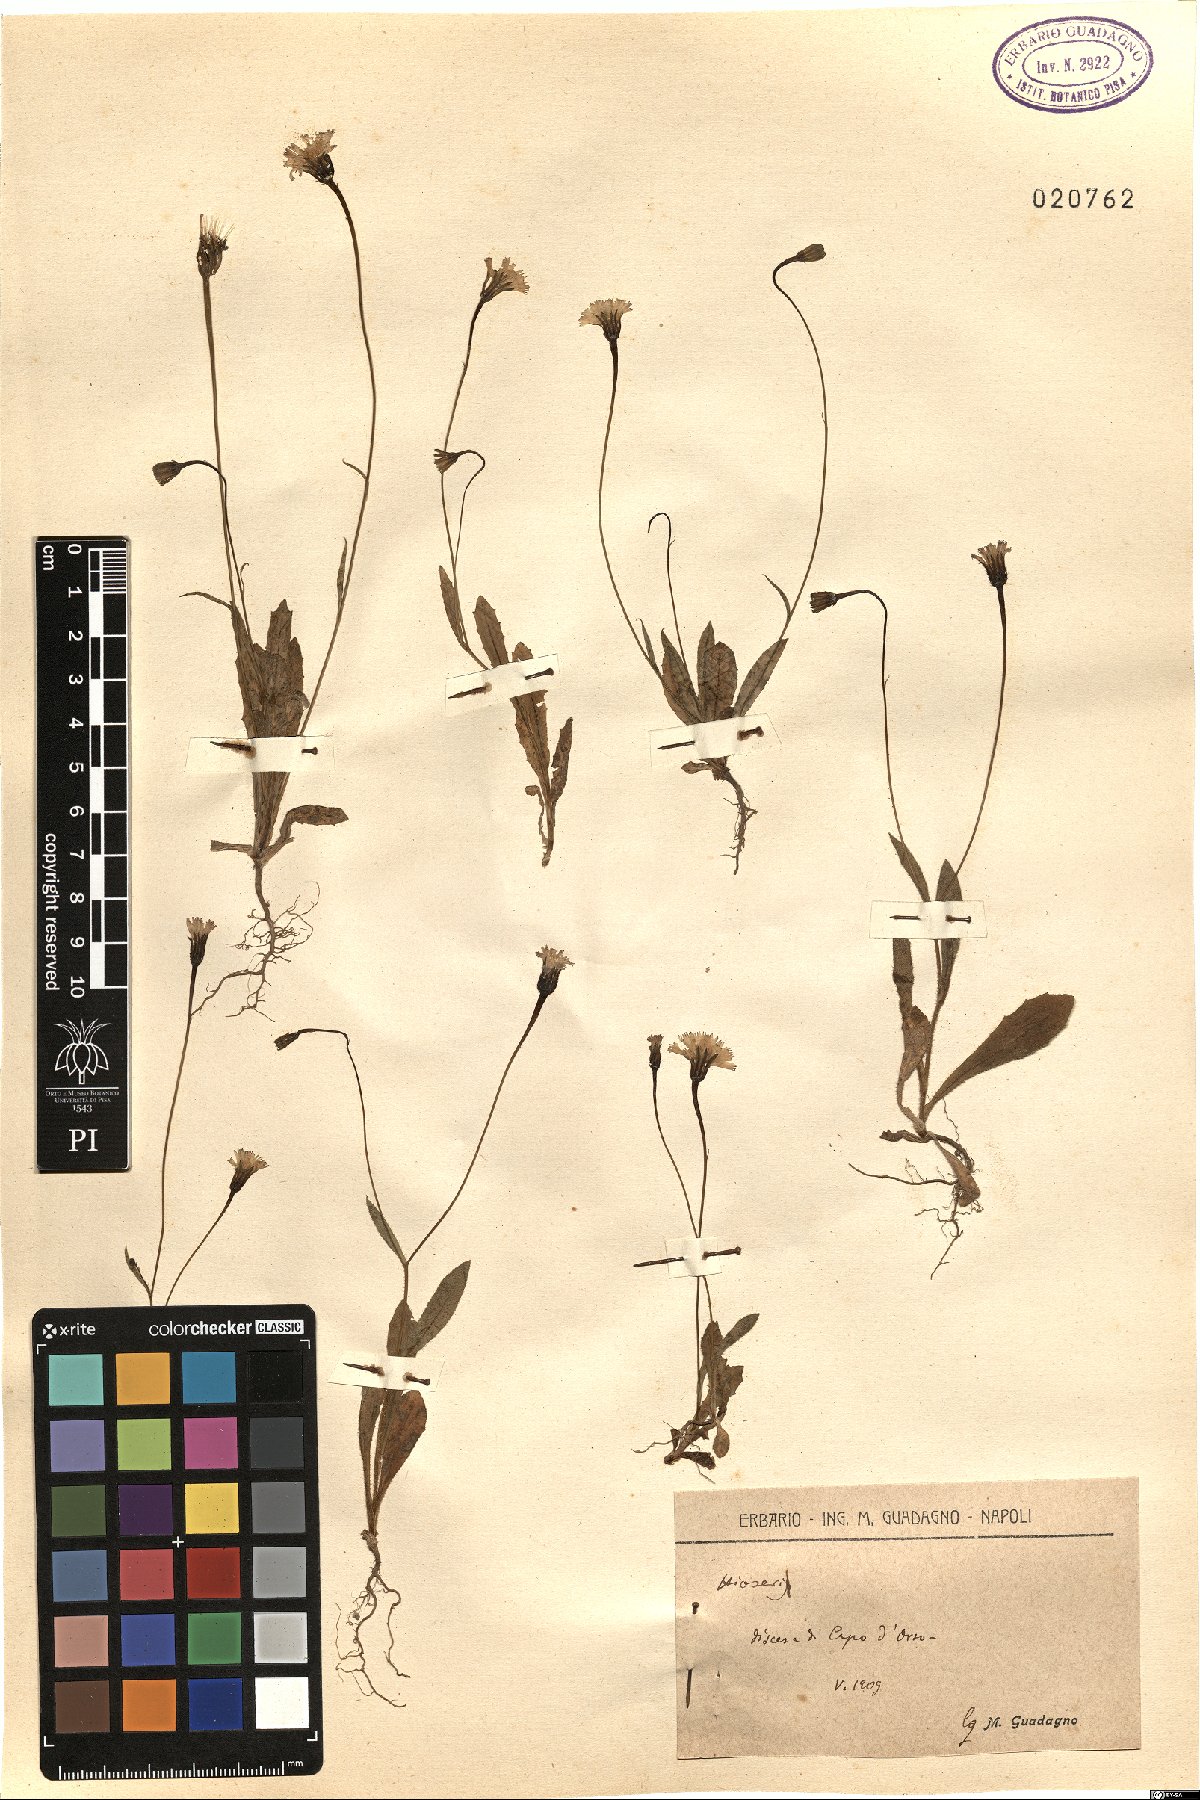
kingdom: Plantae
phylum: Tracheophyta
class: Magnoliopsida
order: Asterales
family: Asteraceae
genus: Hyoseris
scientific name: Hyoseris
